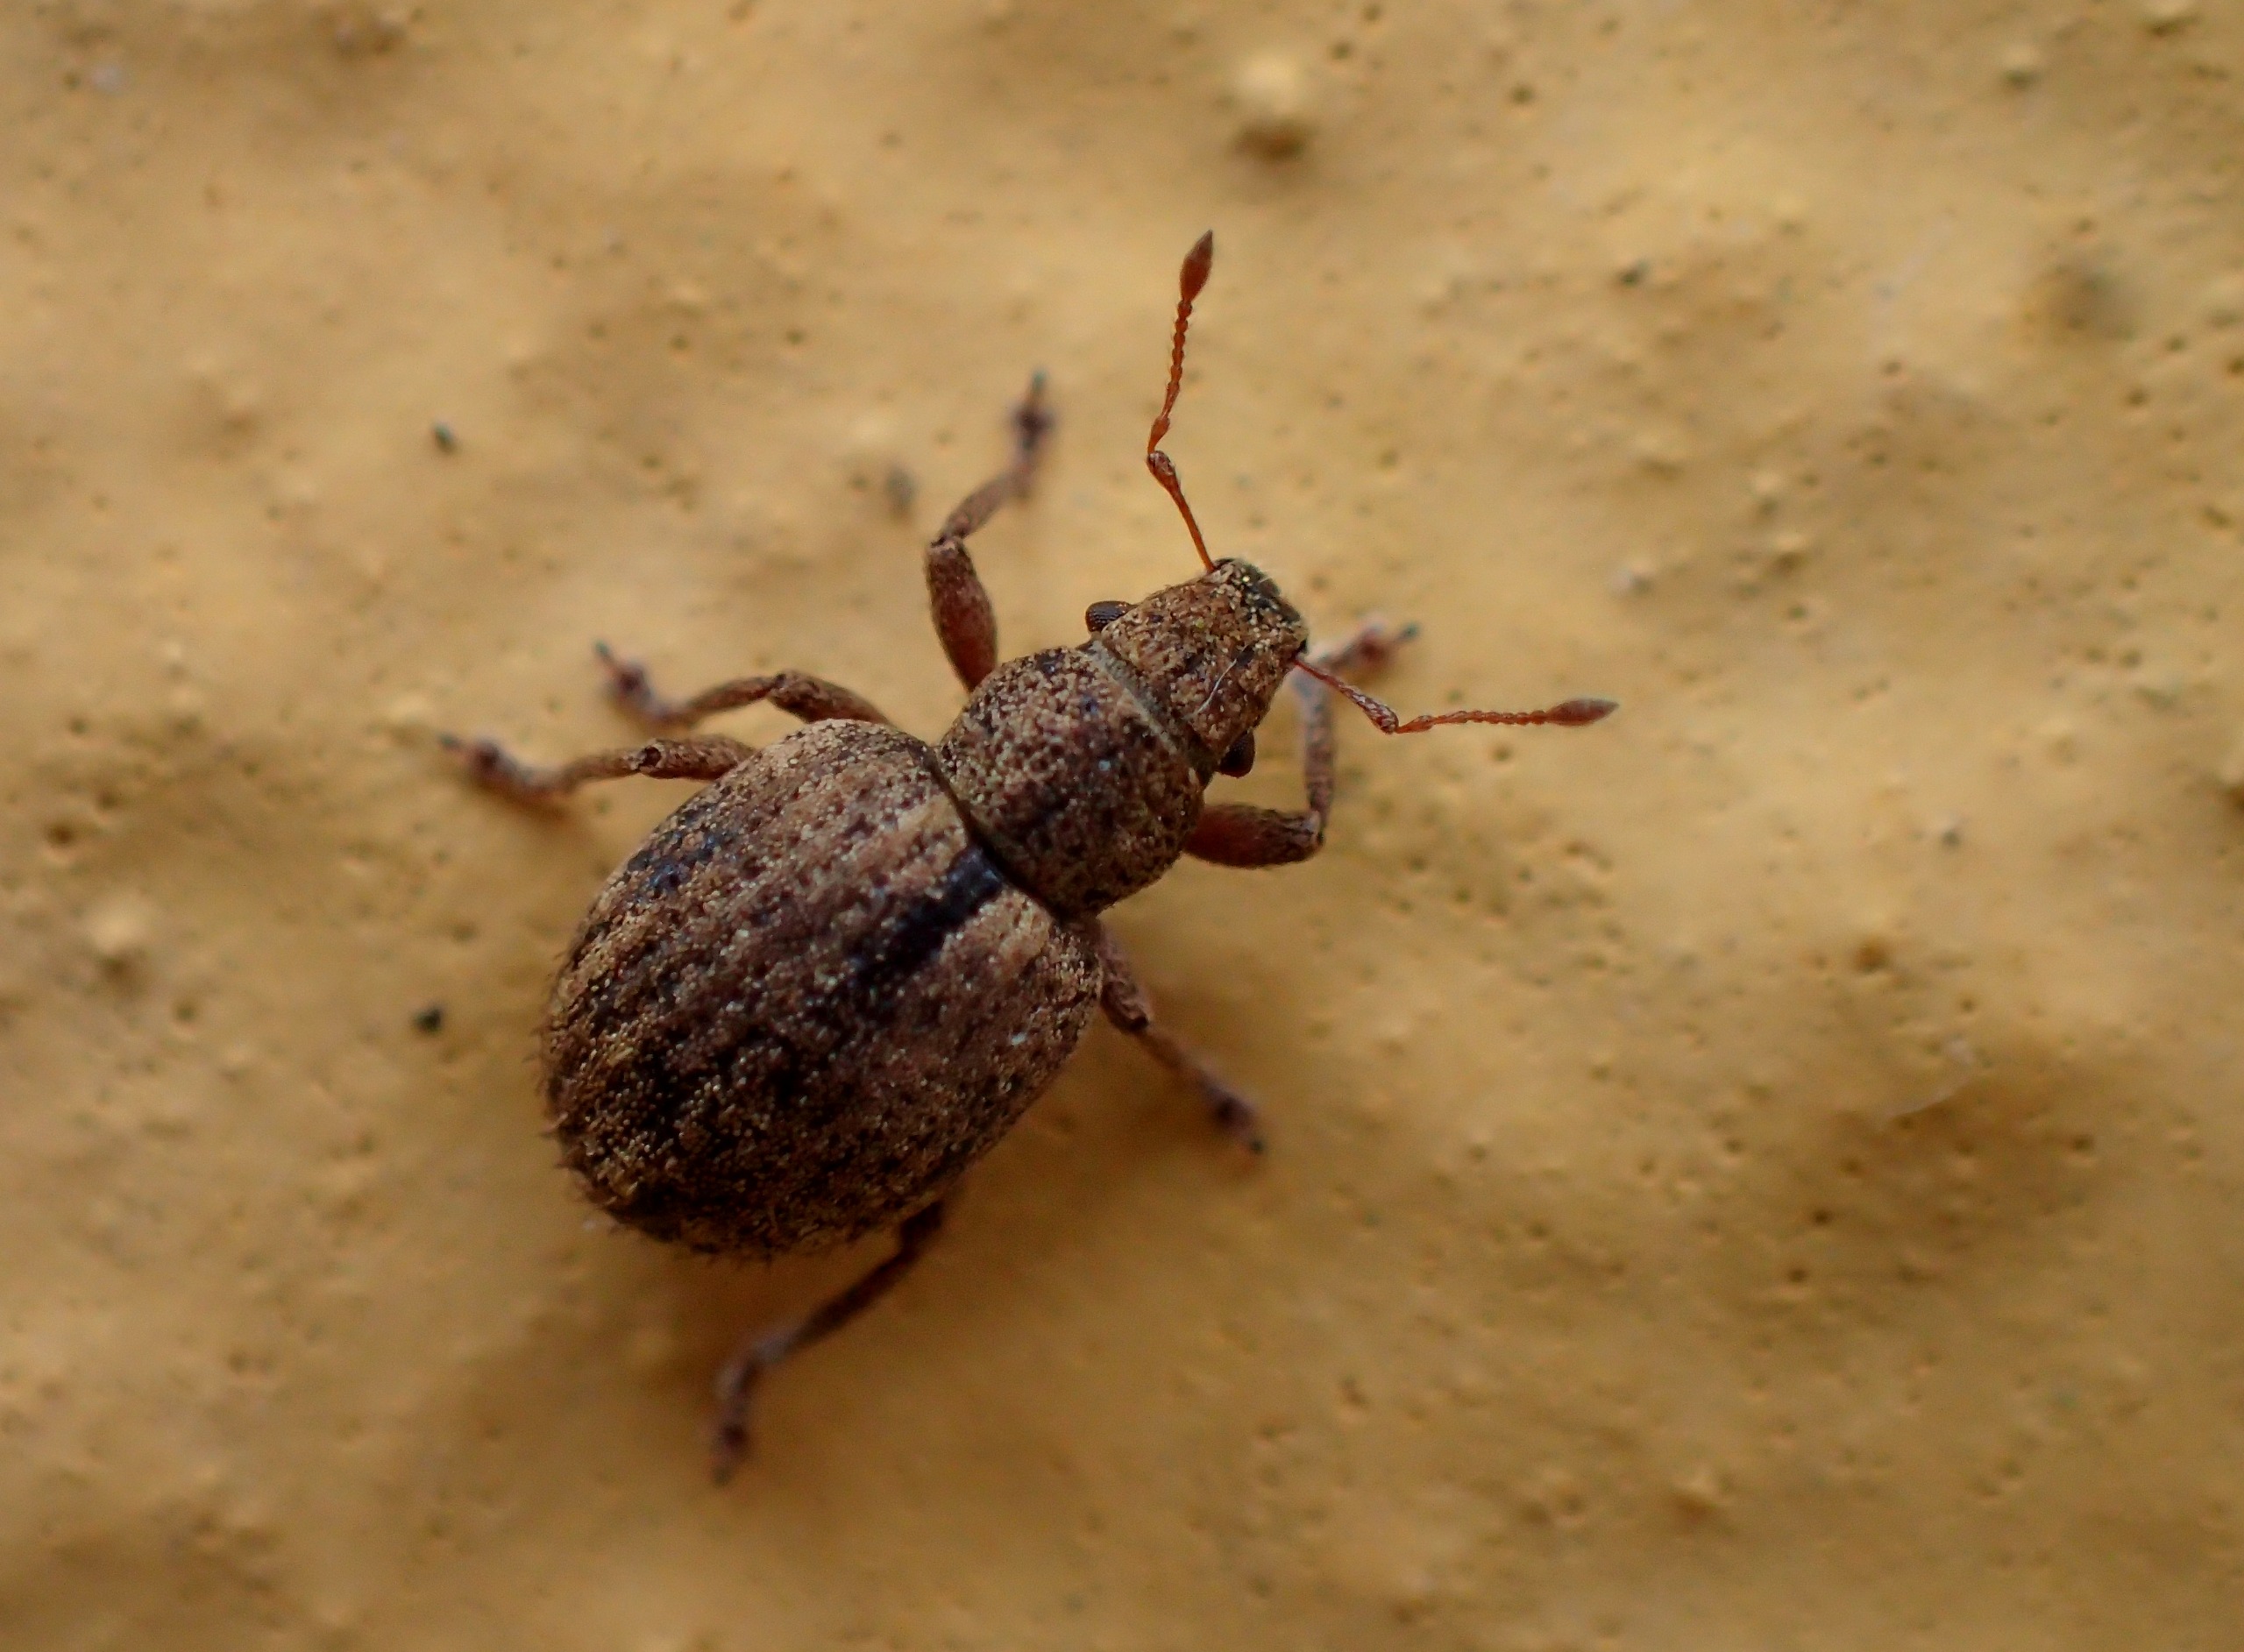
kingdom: Animalia
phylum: Arthropoda
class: Insecta
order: Coleoptera
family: Curculionidae
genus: Strophosoma
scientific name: Strophosoma melanogrammum
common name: Stribet gråsnude
